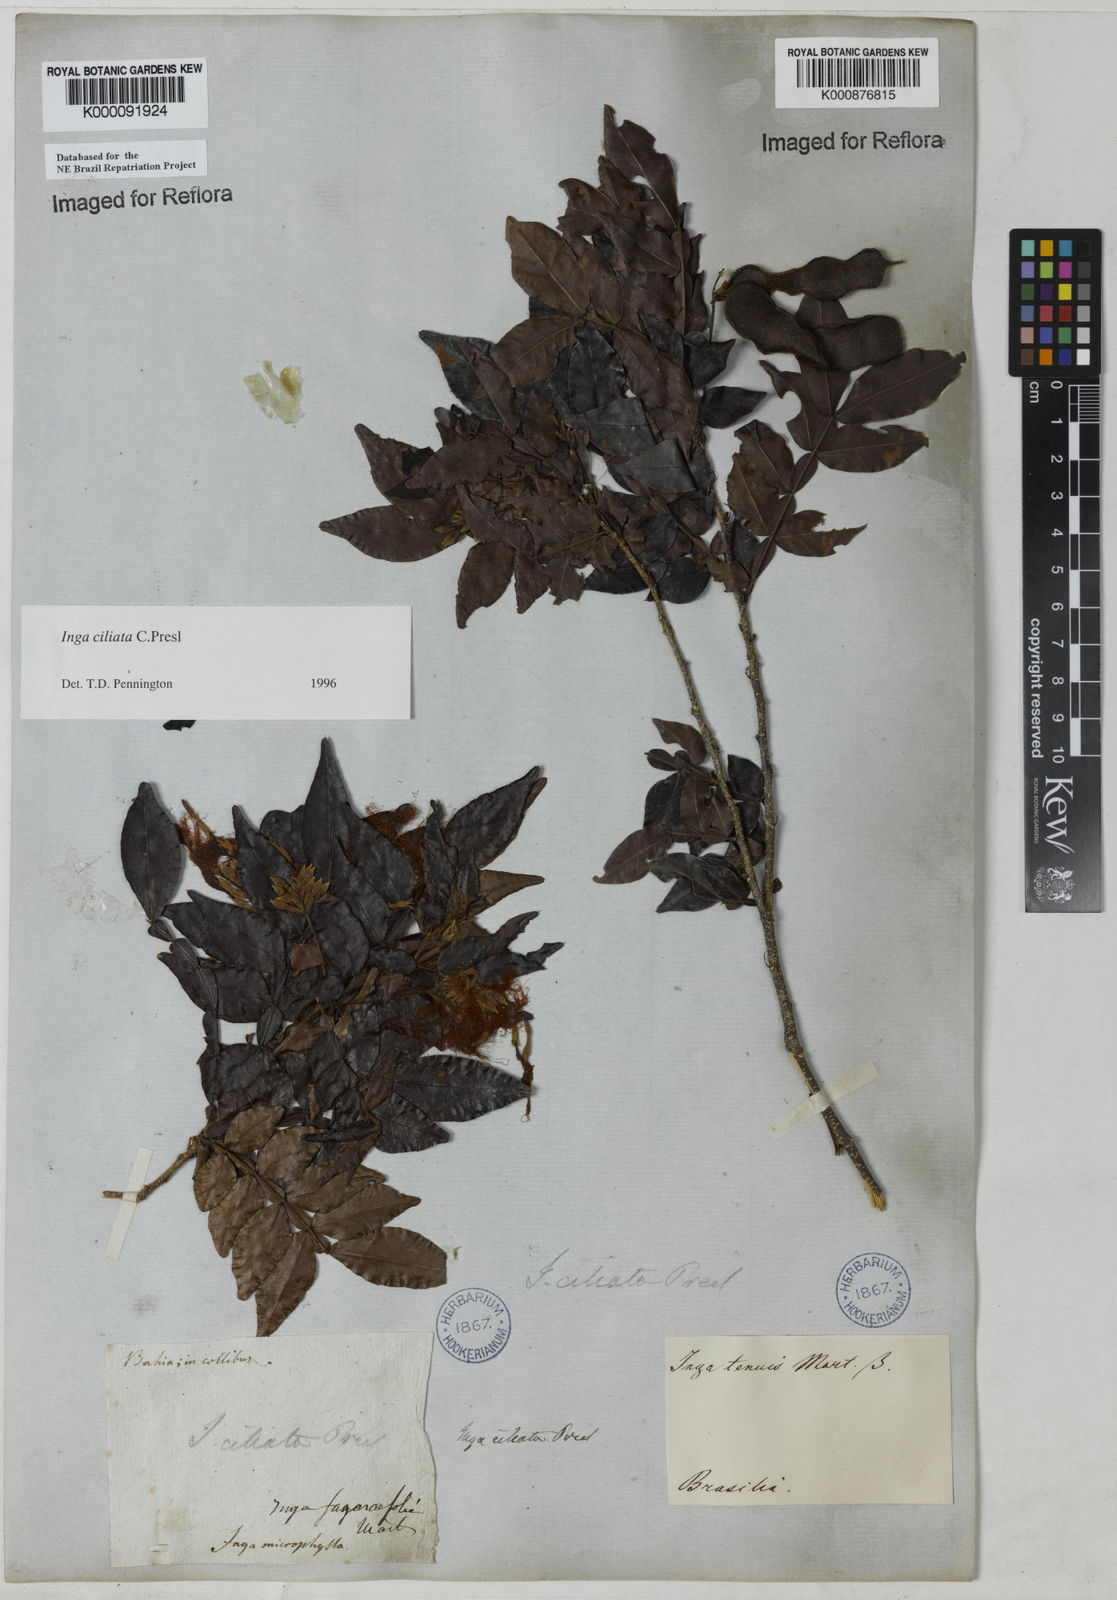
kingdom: Plantae
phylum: Tracheophyta
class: Magnoliopsida
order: Fabales
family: Fabaceae
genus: Inga
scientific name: Inga ciliata
